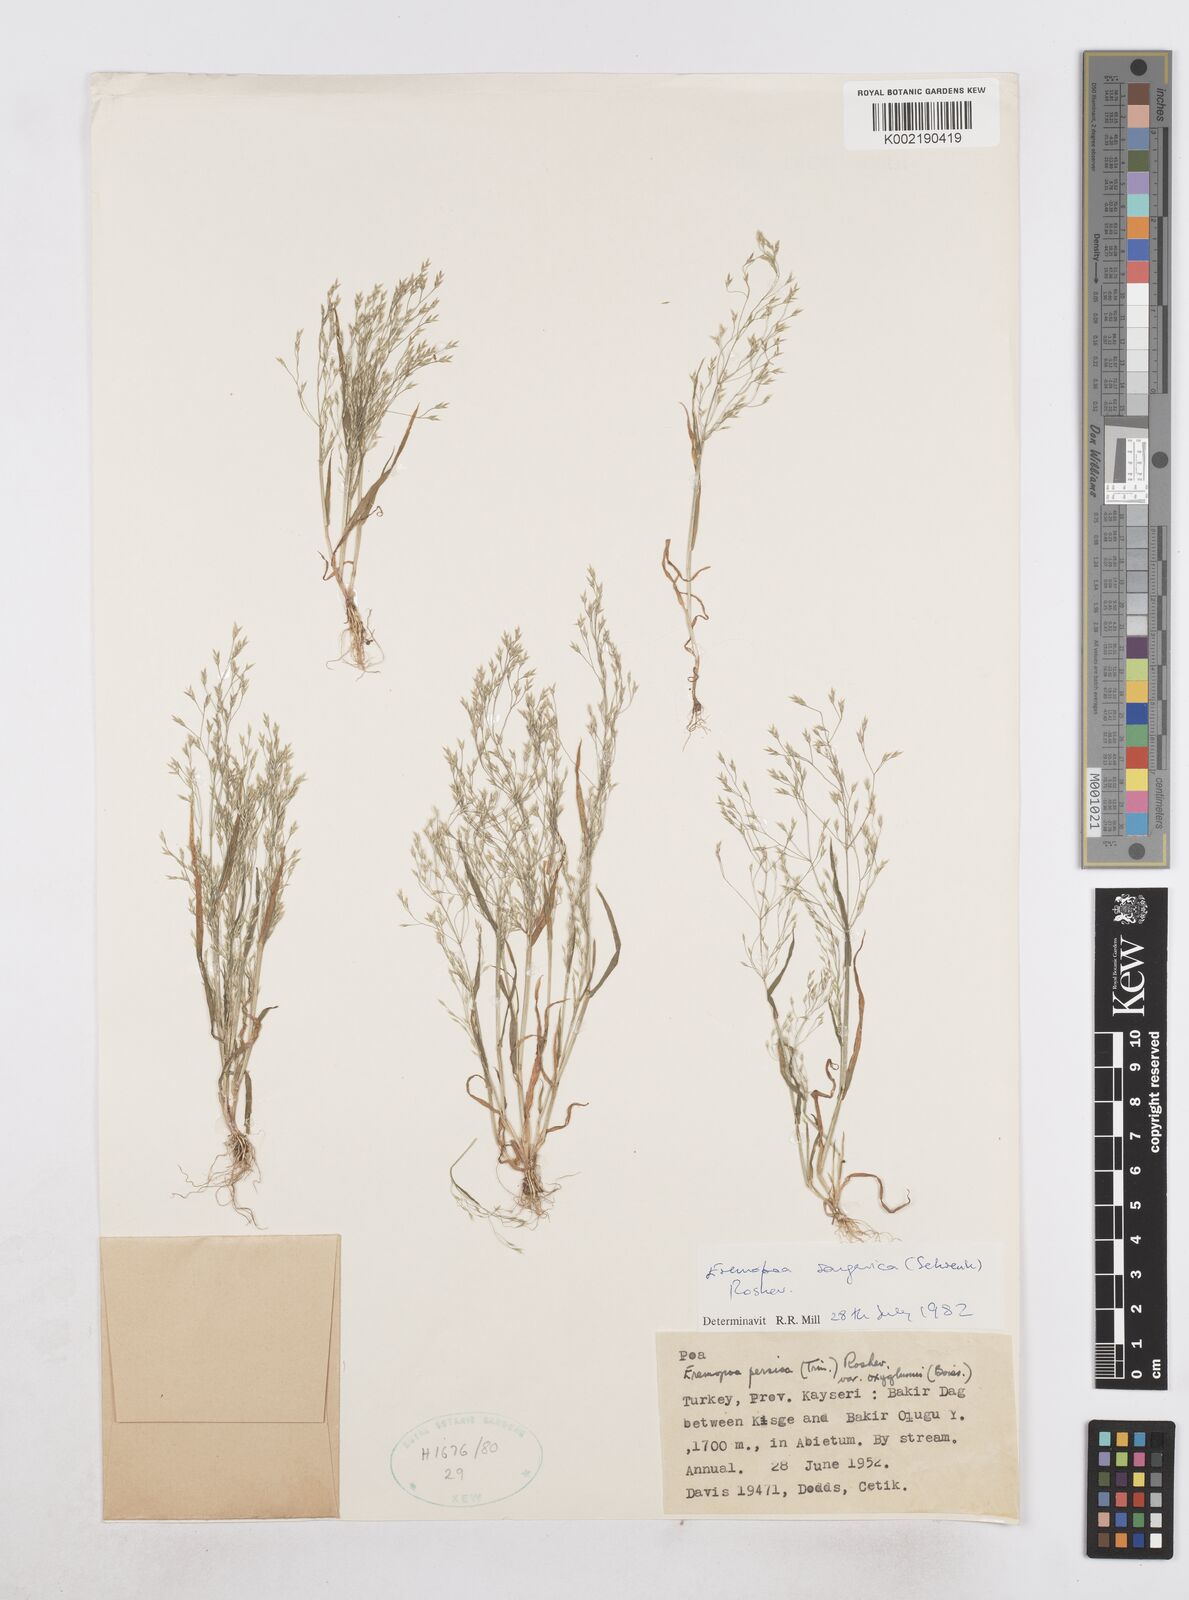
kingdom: Plantae
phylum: Tracheophyta
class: Liliopsida
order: Poales
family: Poaceae
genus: Poa
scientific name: Poa diaphora
